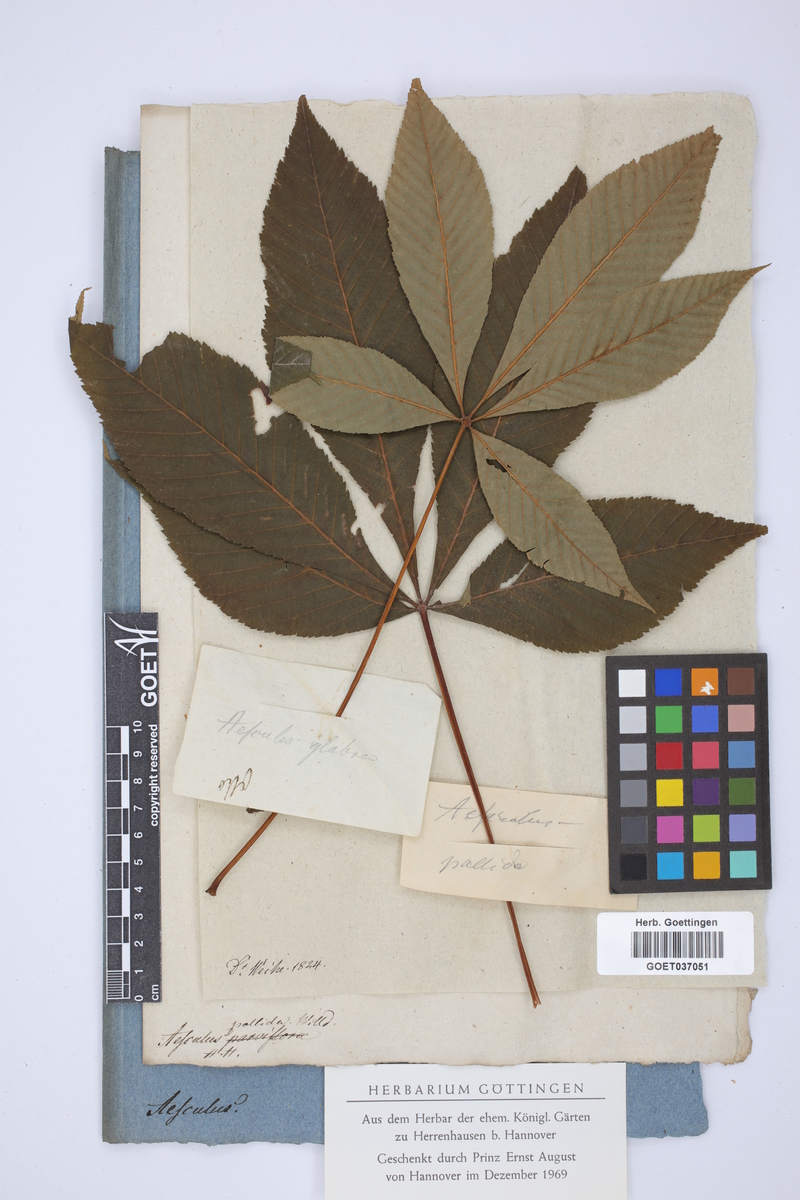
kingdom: Plantae
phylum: Tracheophyta
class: Magnoliopsida
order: Sapindales
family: Sapindaceae
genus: Aesculus
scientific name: Aesculus glabra
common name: Ohio buckeye
